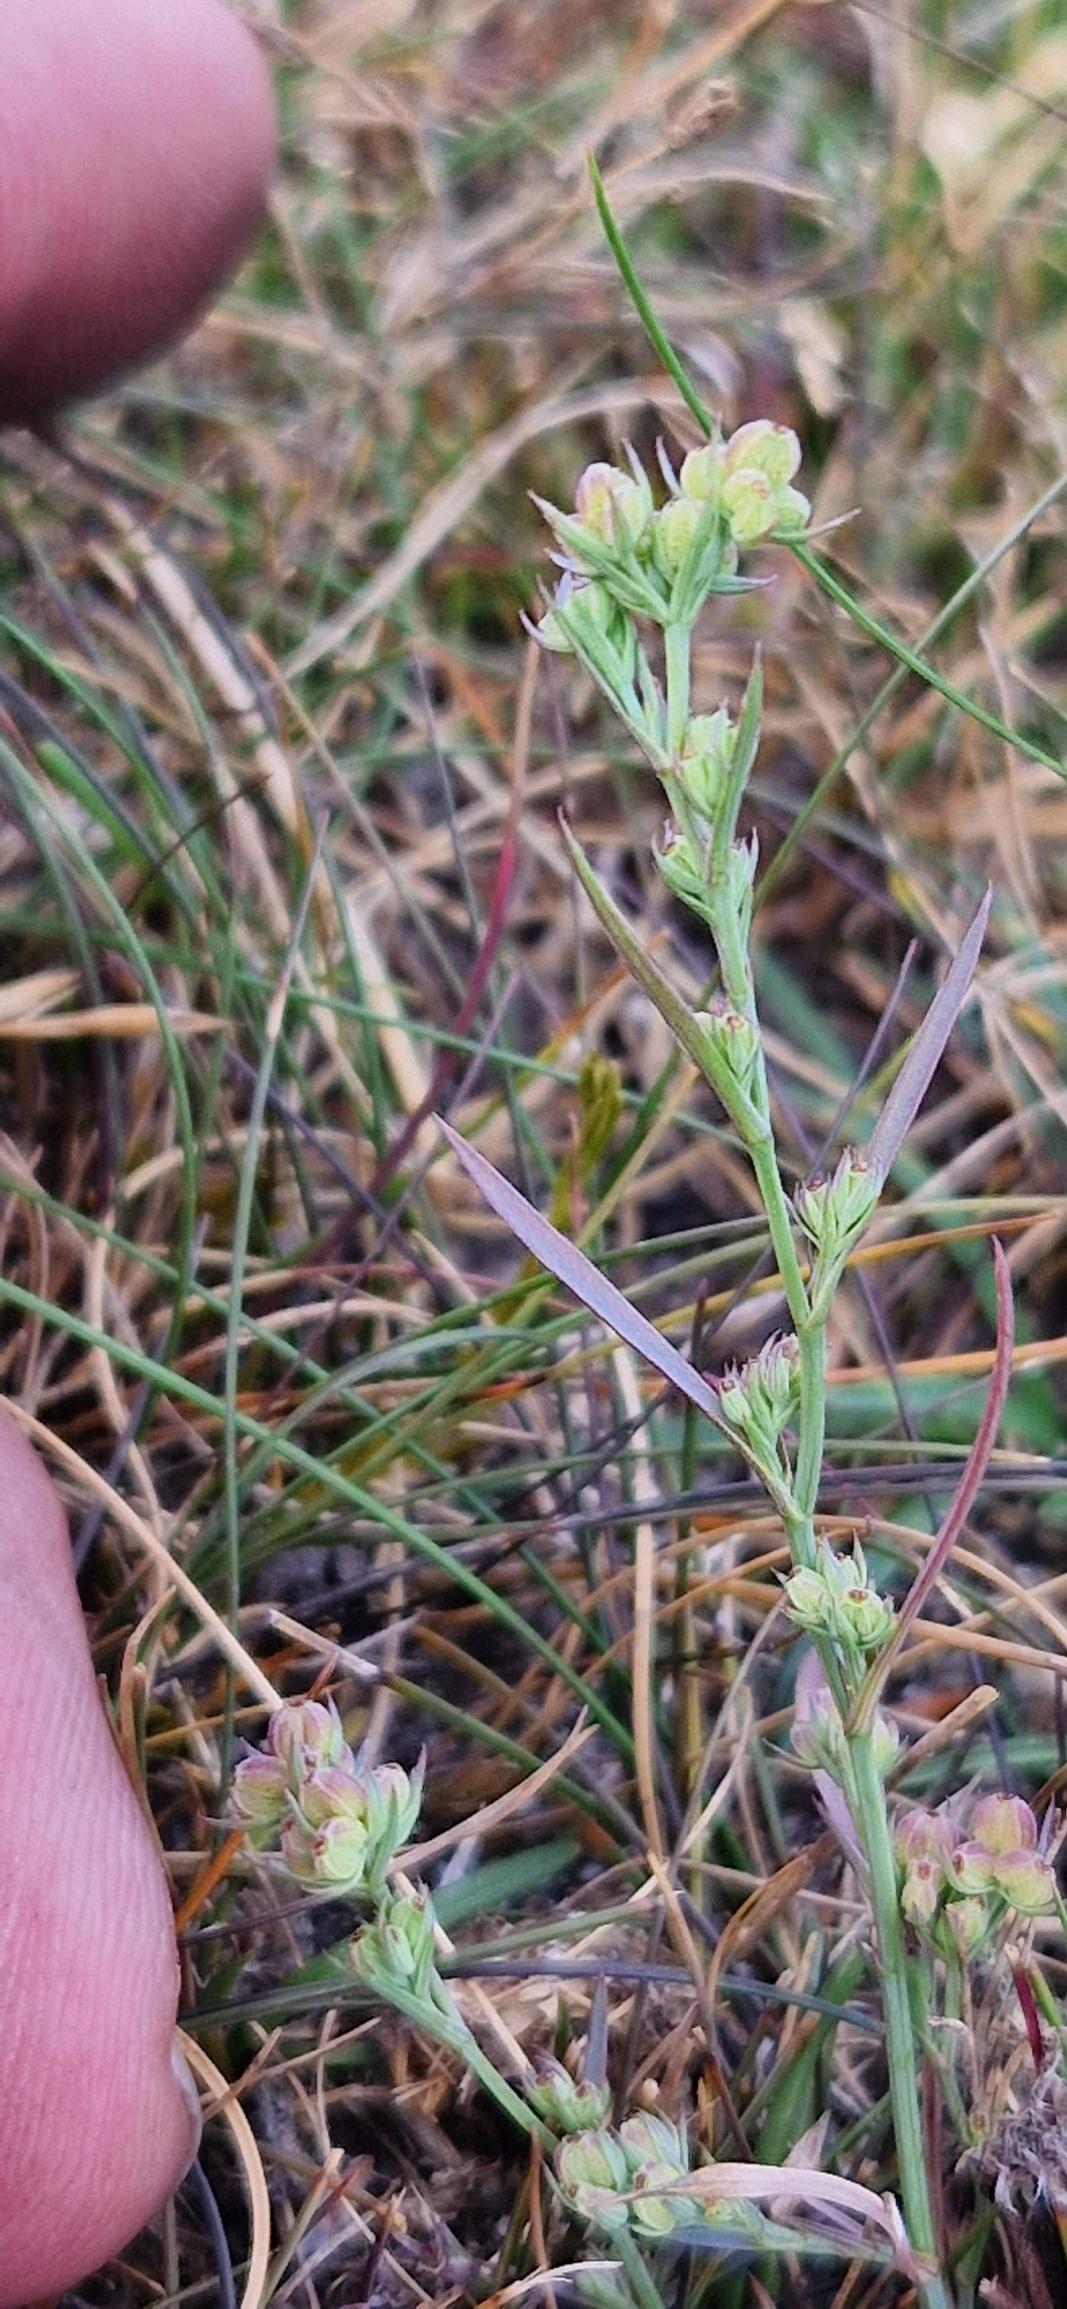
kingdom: Plantae
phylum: Tracheophyta
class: Magnoliopsida
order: Apiales
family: Apiaceae
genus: Bupleurum
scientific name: Bupleurum tenuissimum
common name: Smalbladet hareøre
